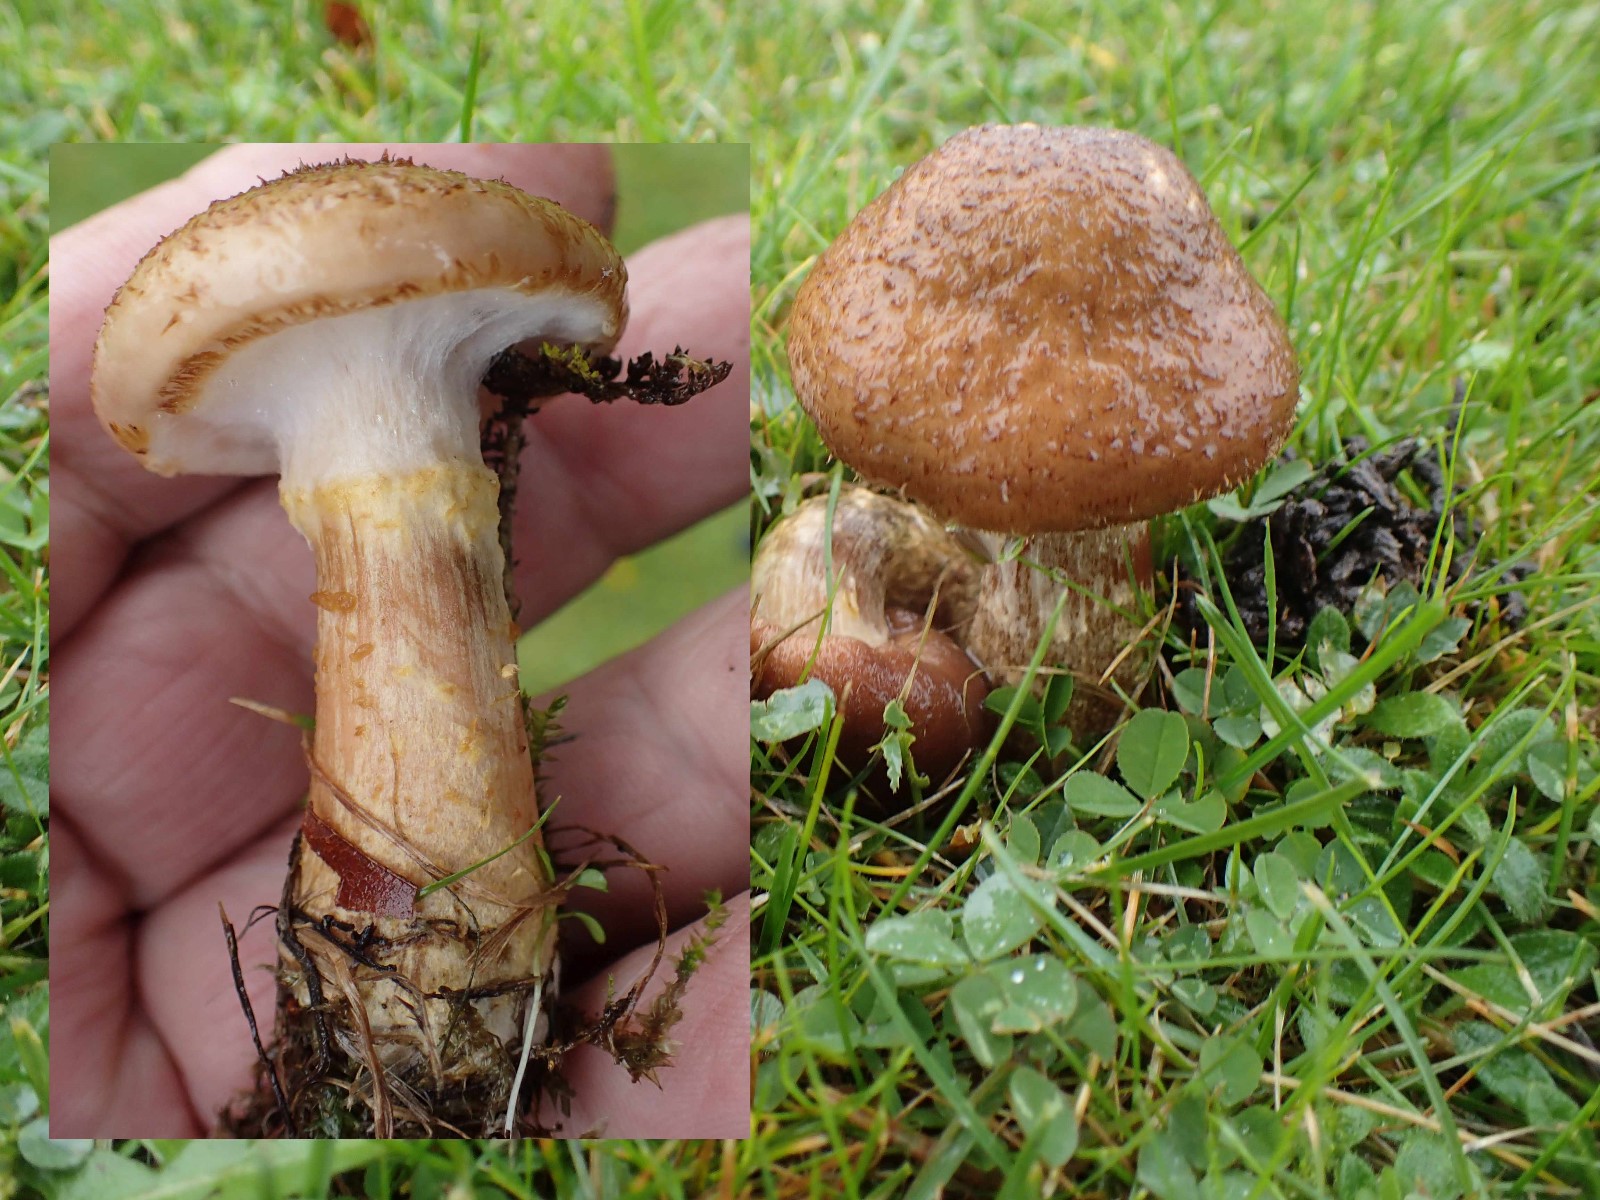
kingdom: Fungi
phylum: Basidiomycota
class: Agaricomycetes
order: Agaricales
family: Physalacriaceae
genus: Armillaria
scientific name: Armillaria lutea
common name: køllestokket honningsvamp
